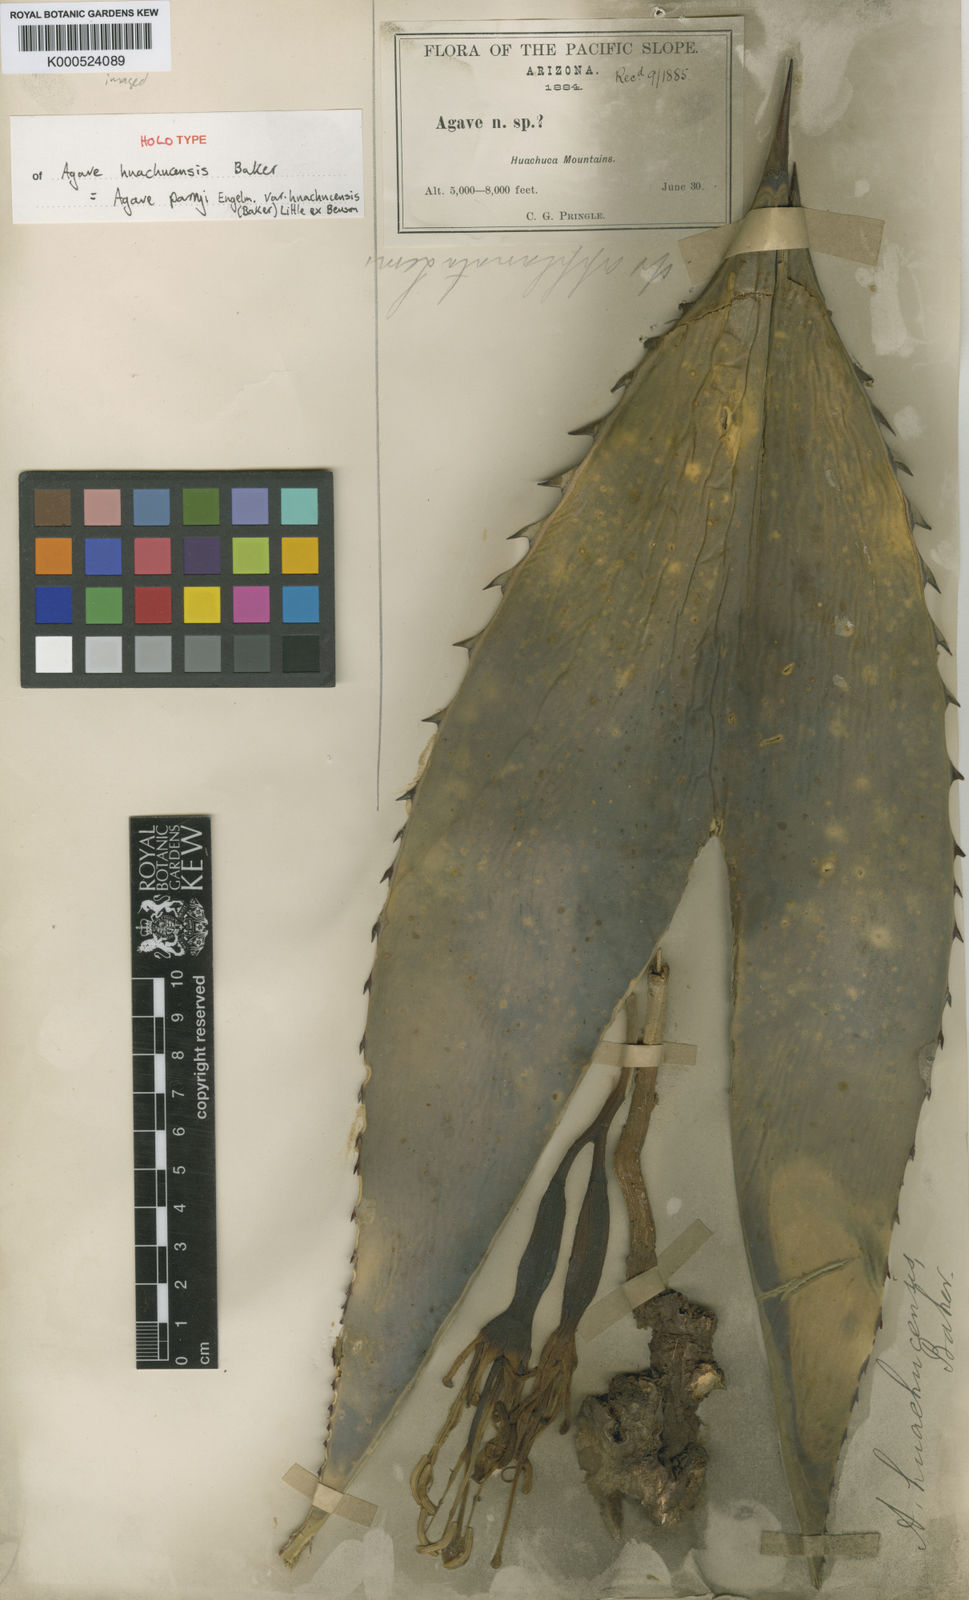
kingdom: Plantae
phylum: Tracheophyta
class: Liliopsida
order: Asparagales
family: Asparagaceae
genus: Agave
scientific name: Agave parryi
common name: Parry's agave
